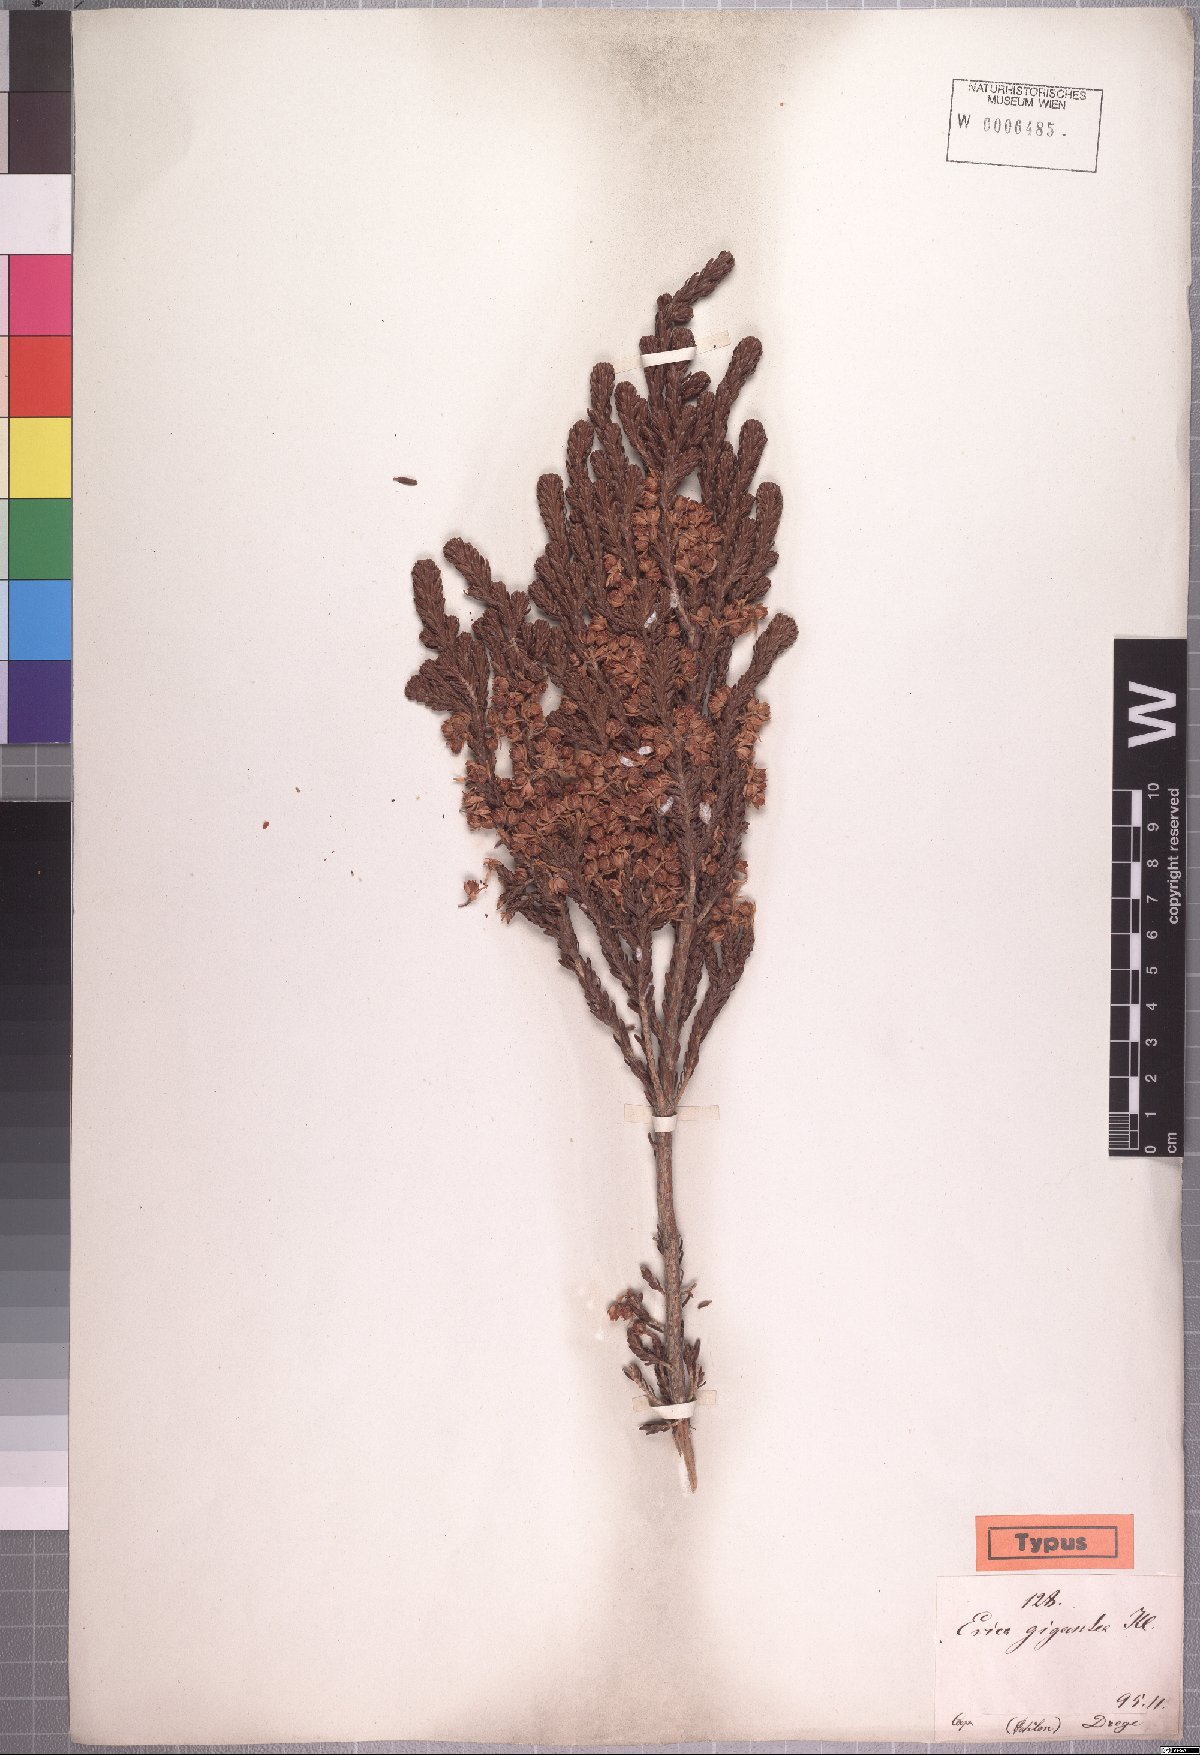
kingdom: Plantae
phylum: Tracheophyta
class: Magnoliopsida
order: Ericales
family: Ericaceae
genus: Erica
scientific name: Erica gigantea
